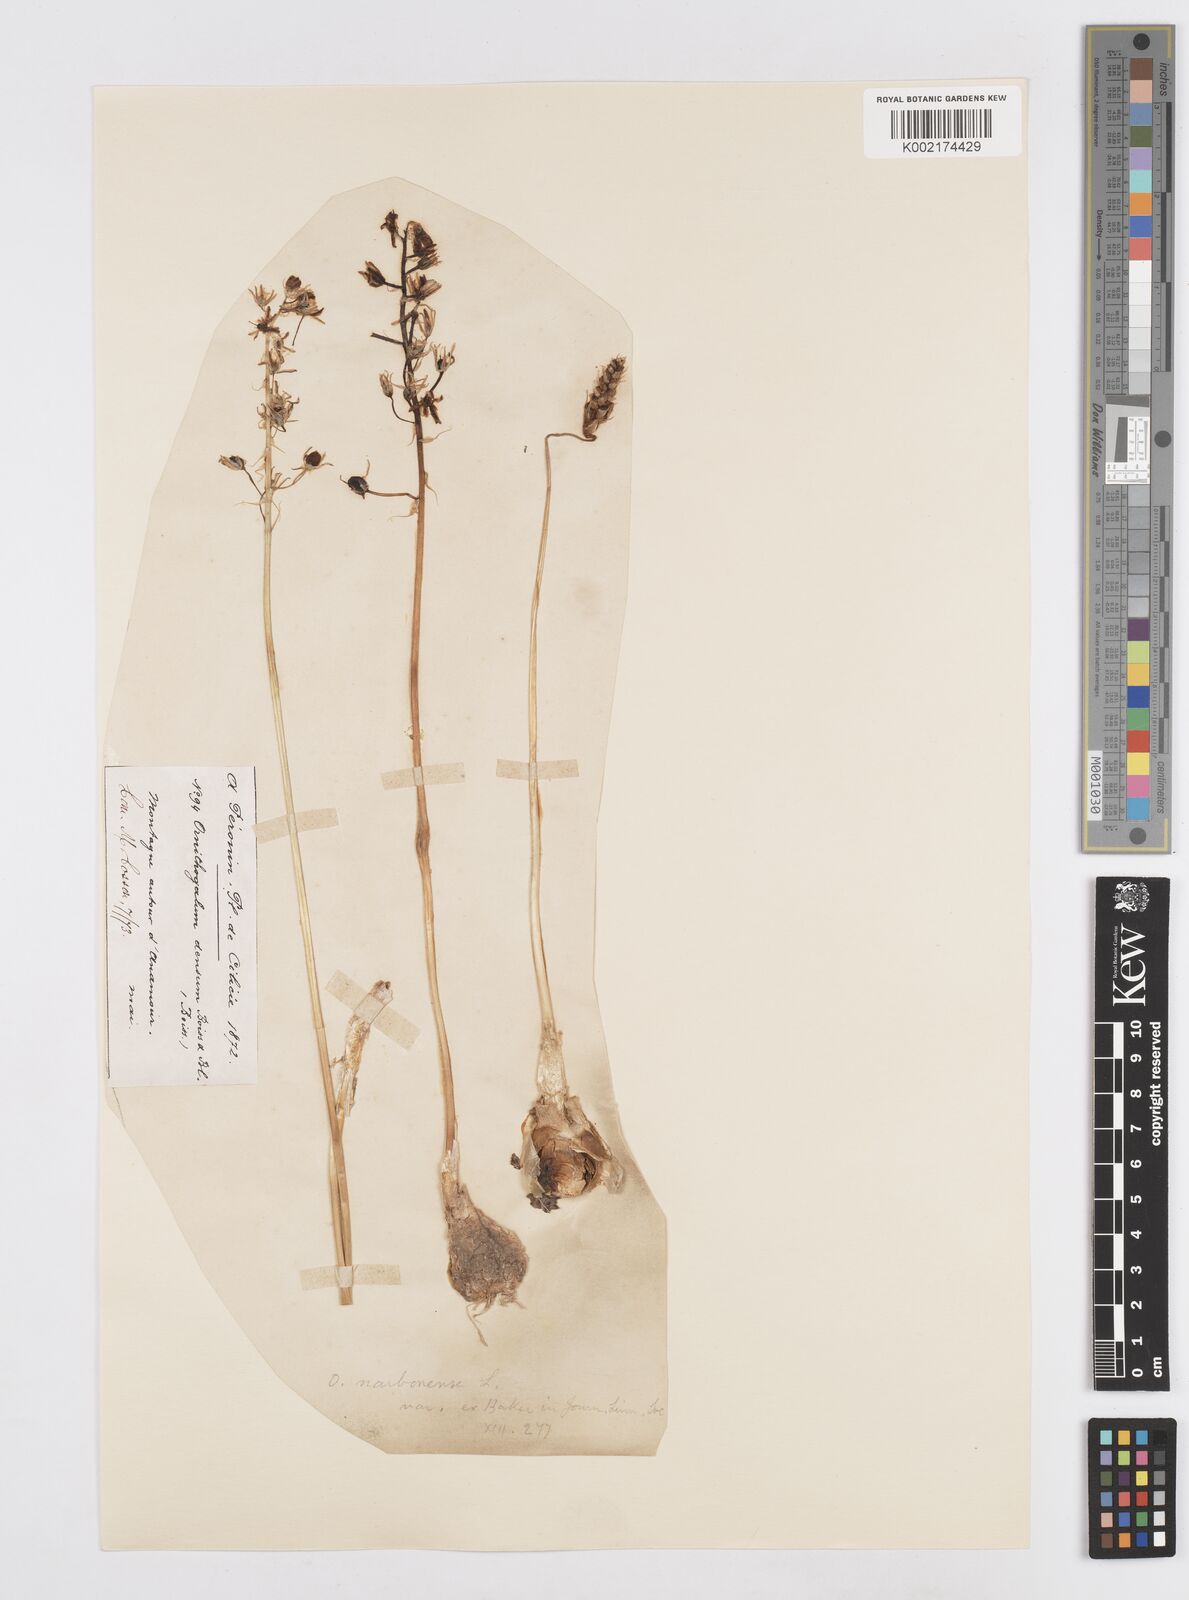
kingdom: Plantae
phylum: Tracheophyta
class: Liliopsida
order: Asparagales
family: Asparagaceae
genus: Ornithogalum
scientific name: Ornithogalum narbonense
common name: Bath-asparagus
